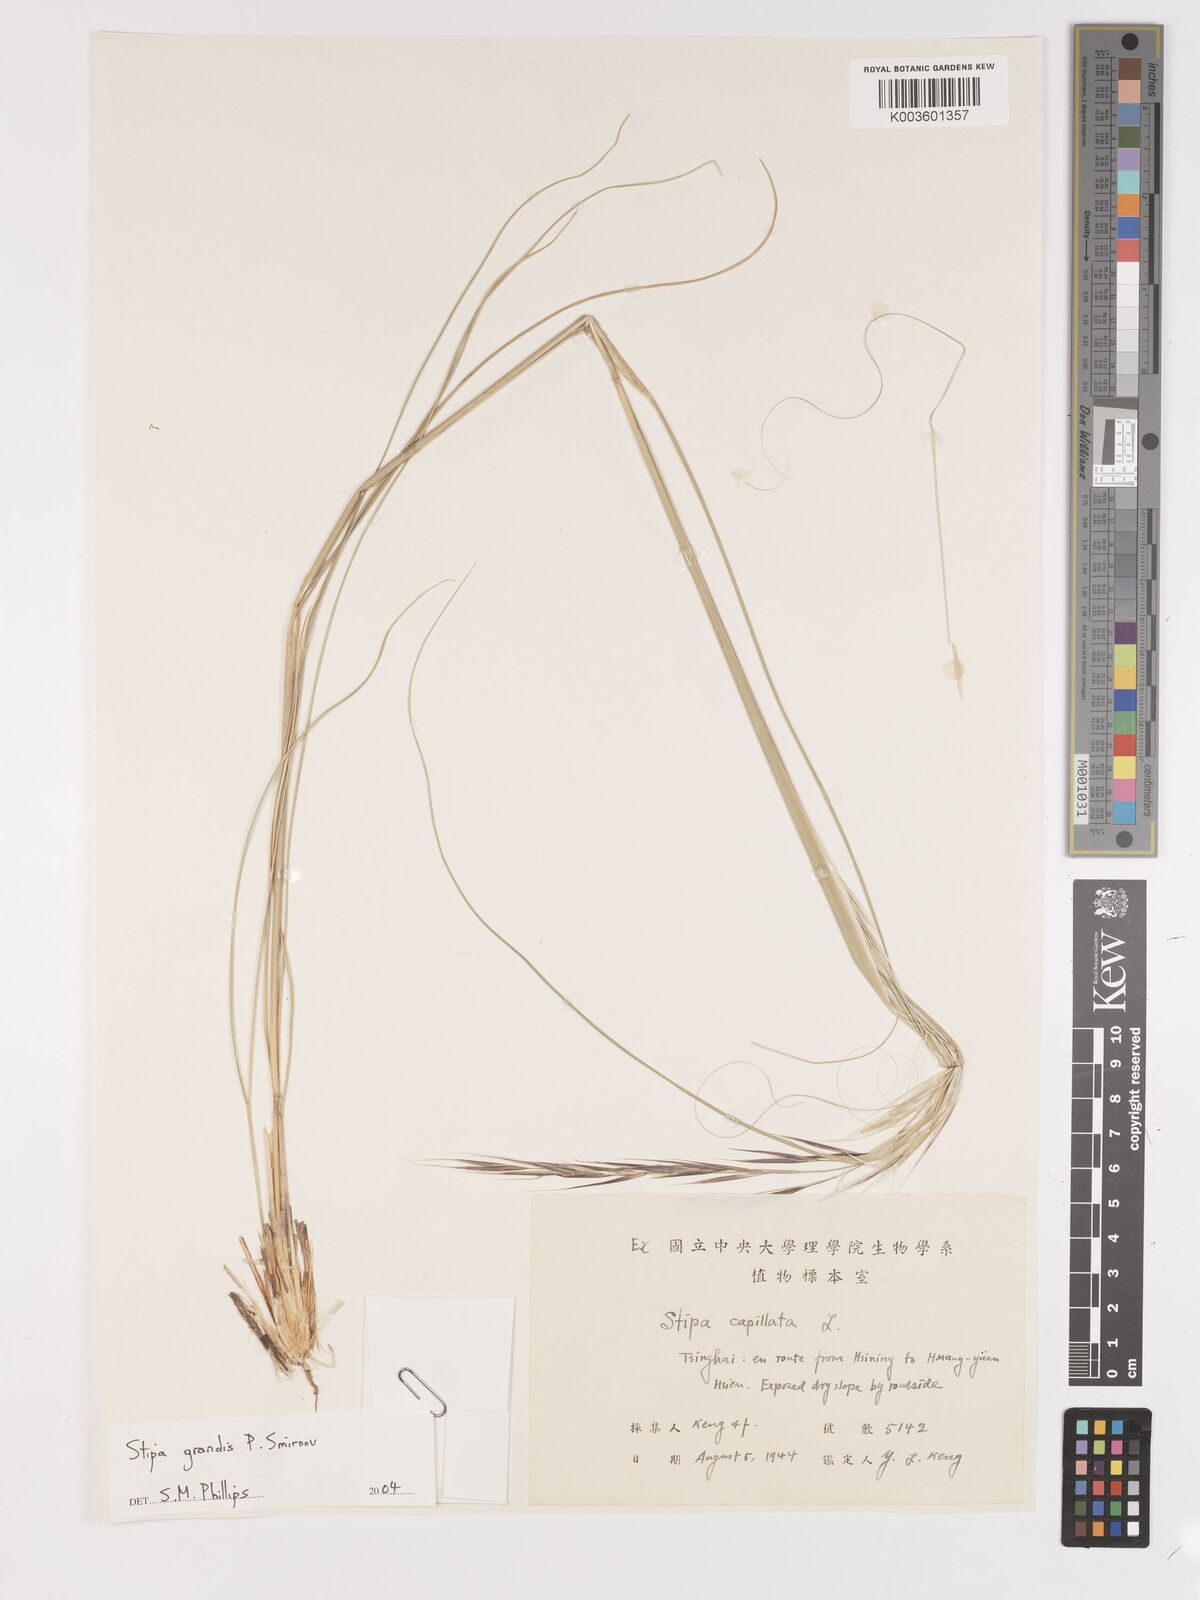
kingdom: Plantae
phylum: Tracheophyta
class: Liliopsida
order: Poales
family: Poaceae
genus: Stipa
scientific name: Stipa grandis
